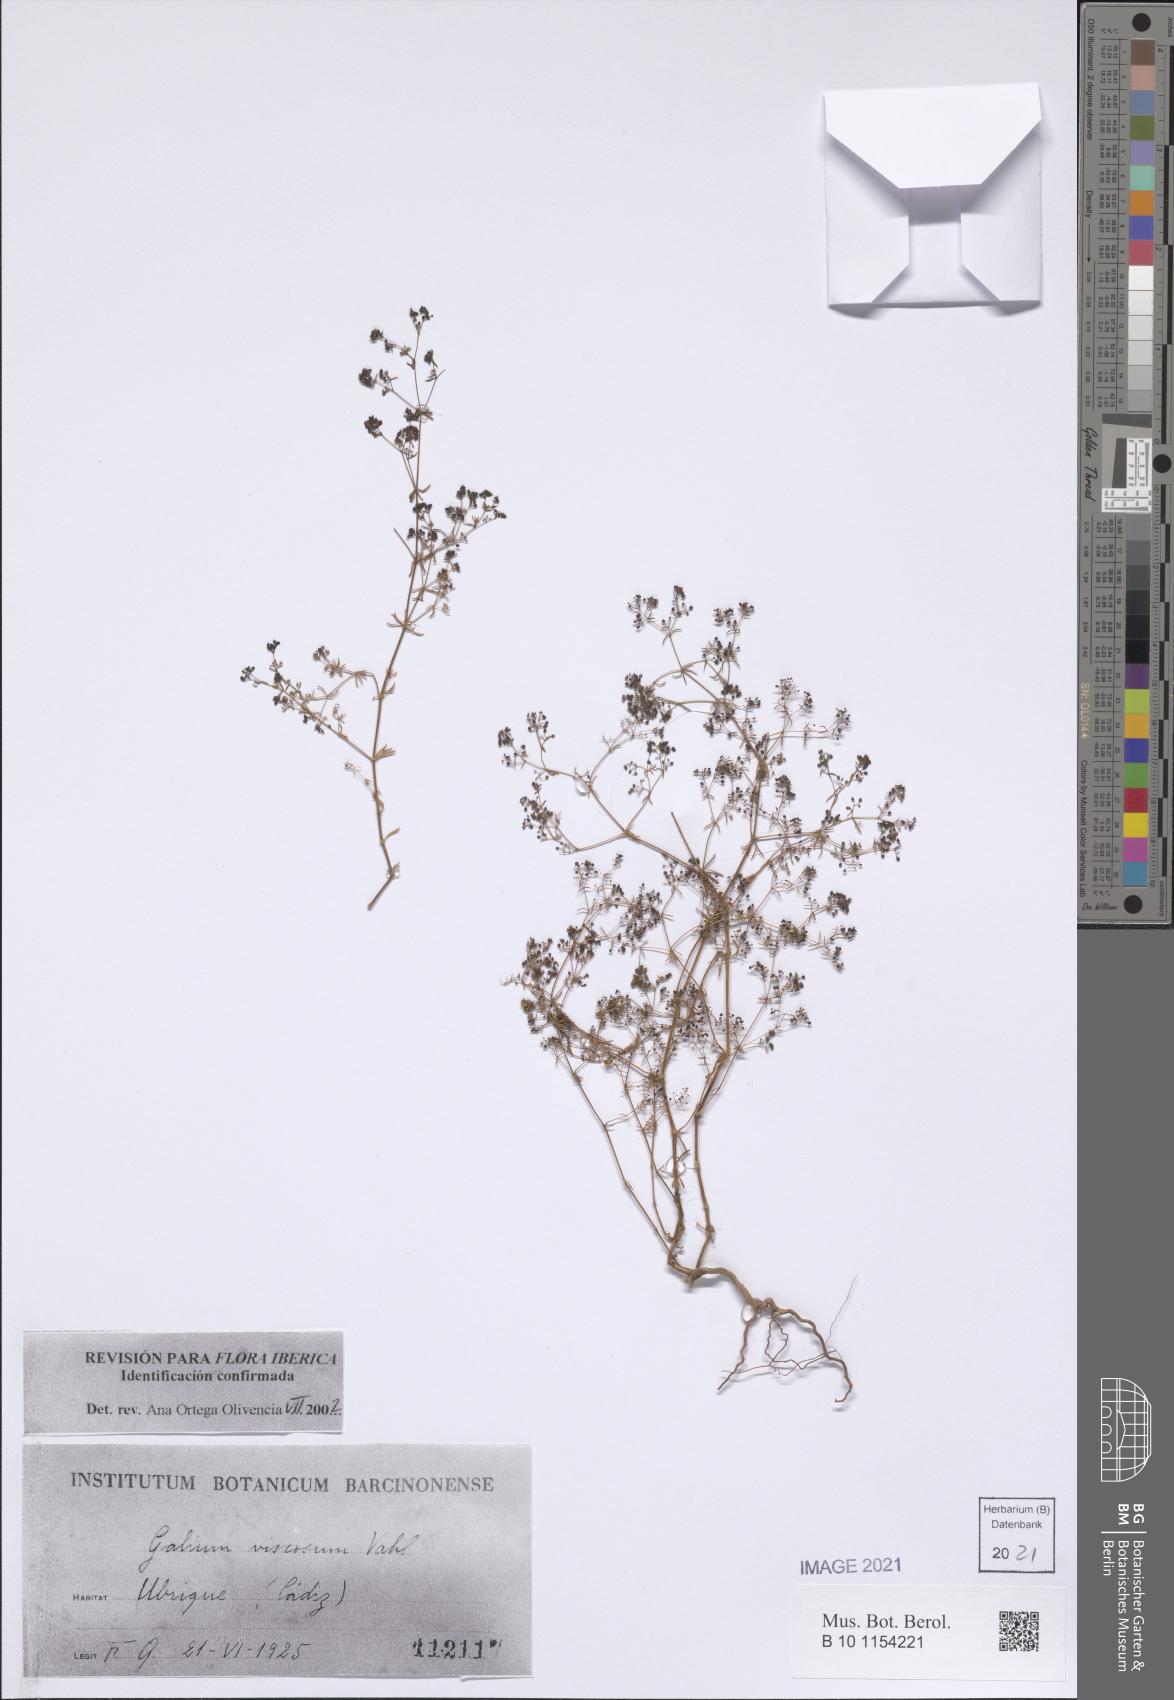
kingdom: Plantae
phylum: Tracheophyta
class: Magnoliopsida
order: Gentianales
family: Rubiaceae
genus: Galium
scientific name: Galium viscosum
